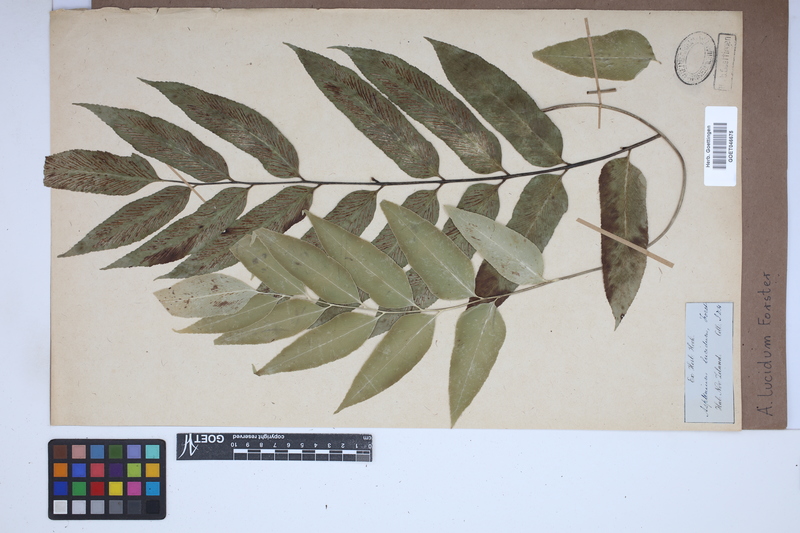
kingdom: Plantae
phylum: Tracheophyta
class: Polypodiopsida
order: Polypodiales
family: Aspleniaceae
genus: Asplenium
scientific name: Asplenium
